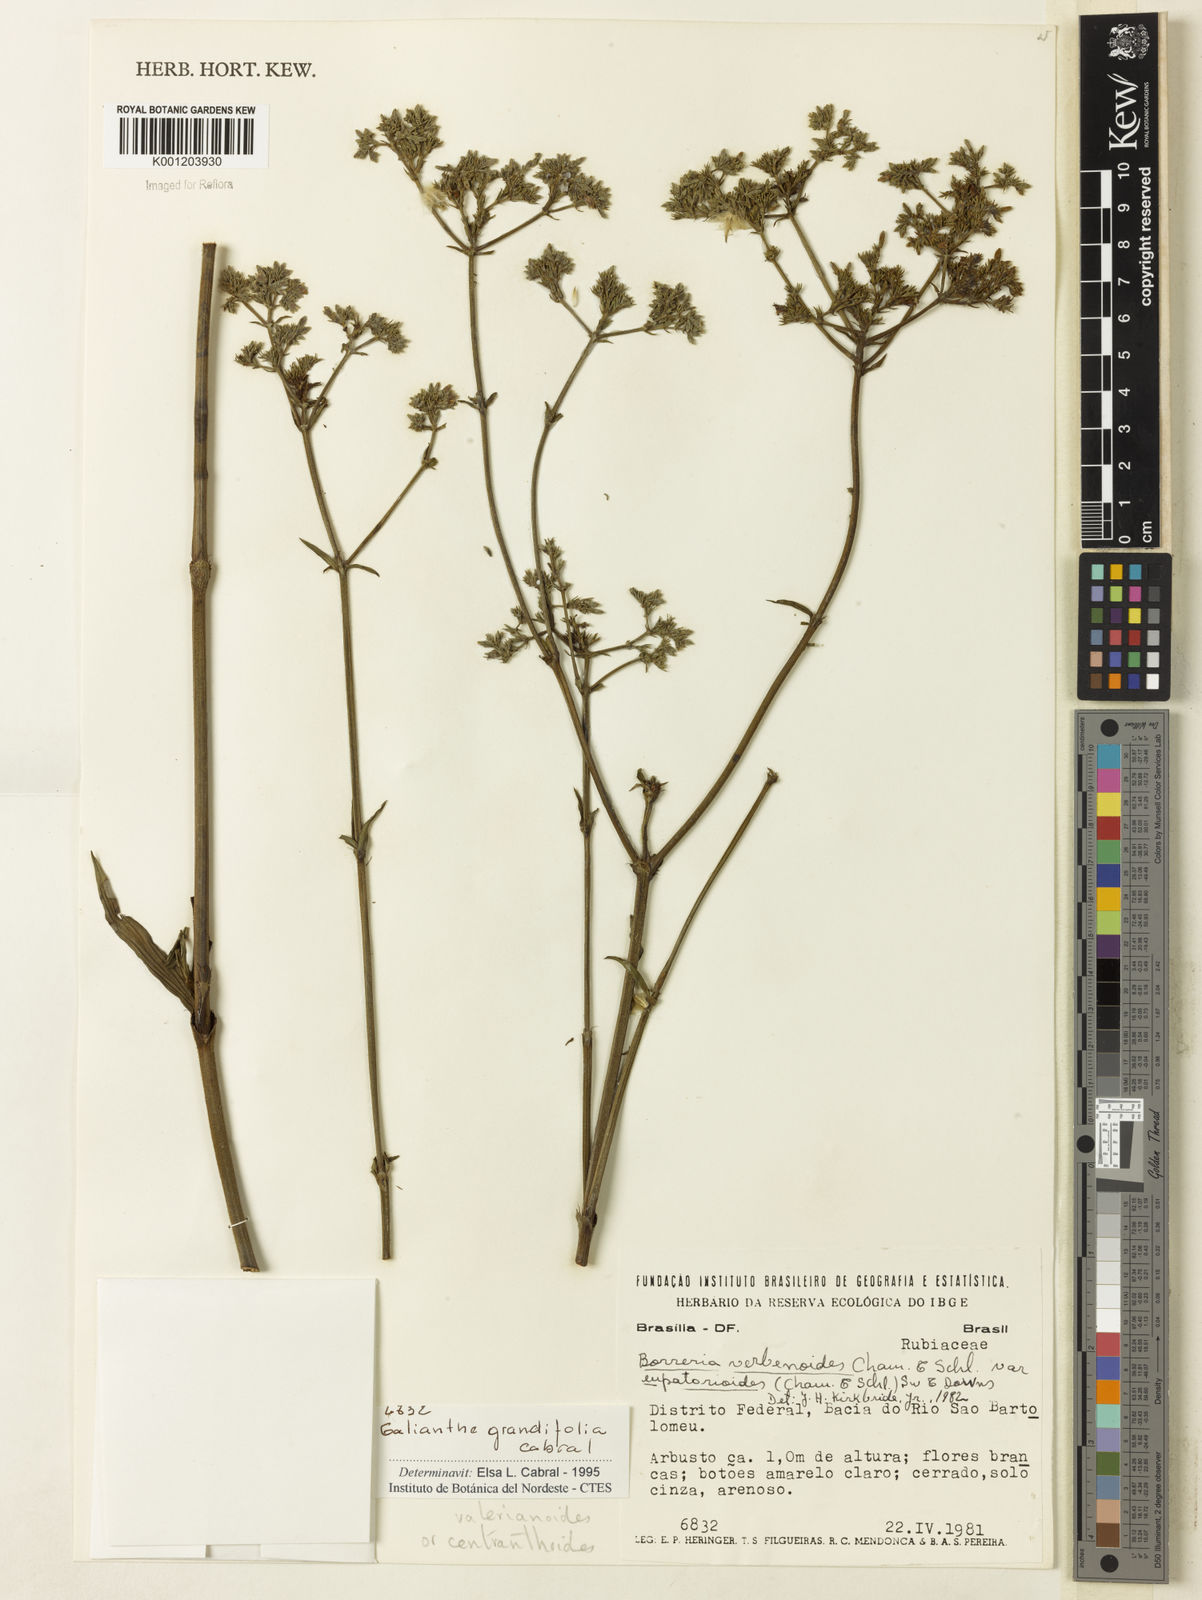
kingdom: Plantae
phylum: Tracheophyta
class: Magnoliopsida
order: Gentianales
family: Rubiaceae
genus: Galianthe
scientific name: Galianthe grandifolia
